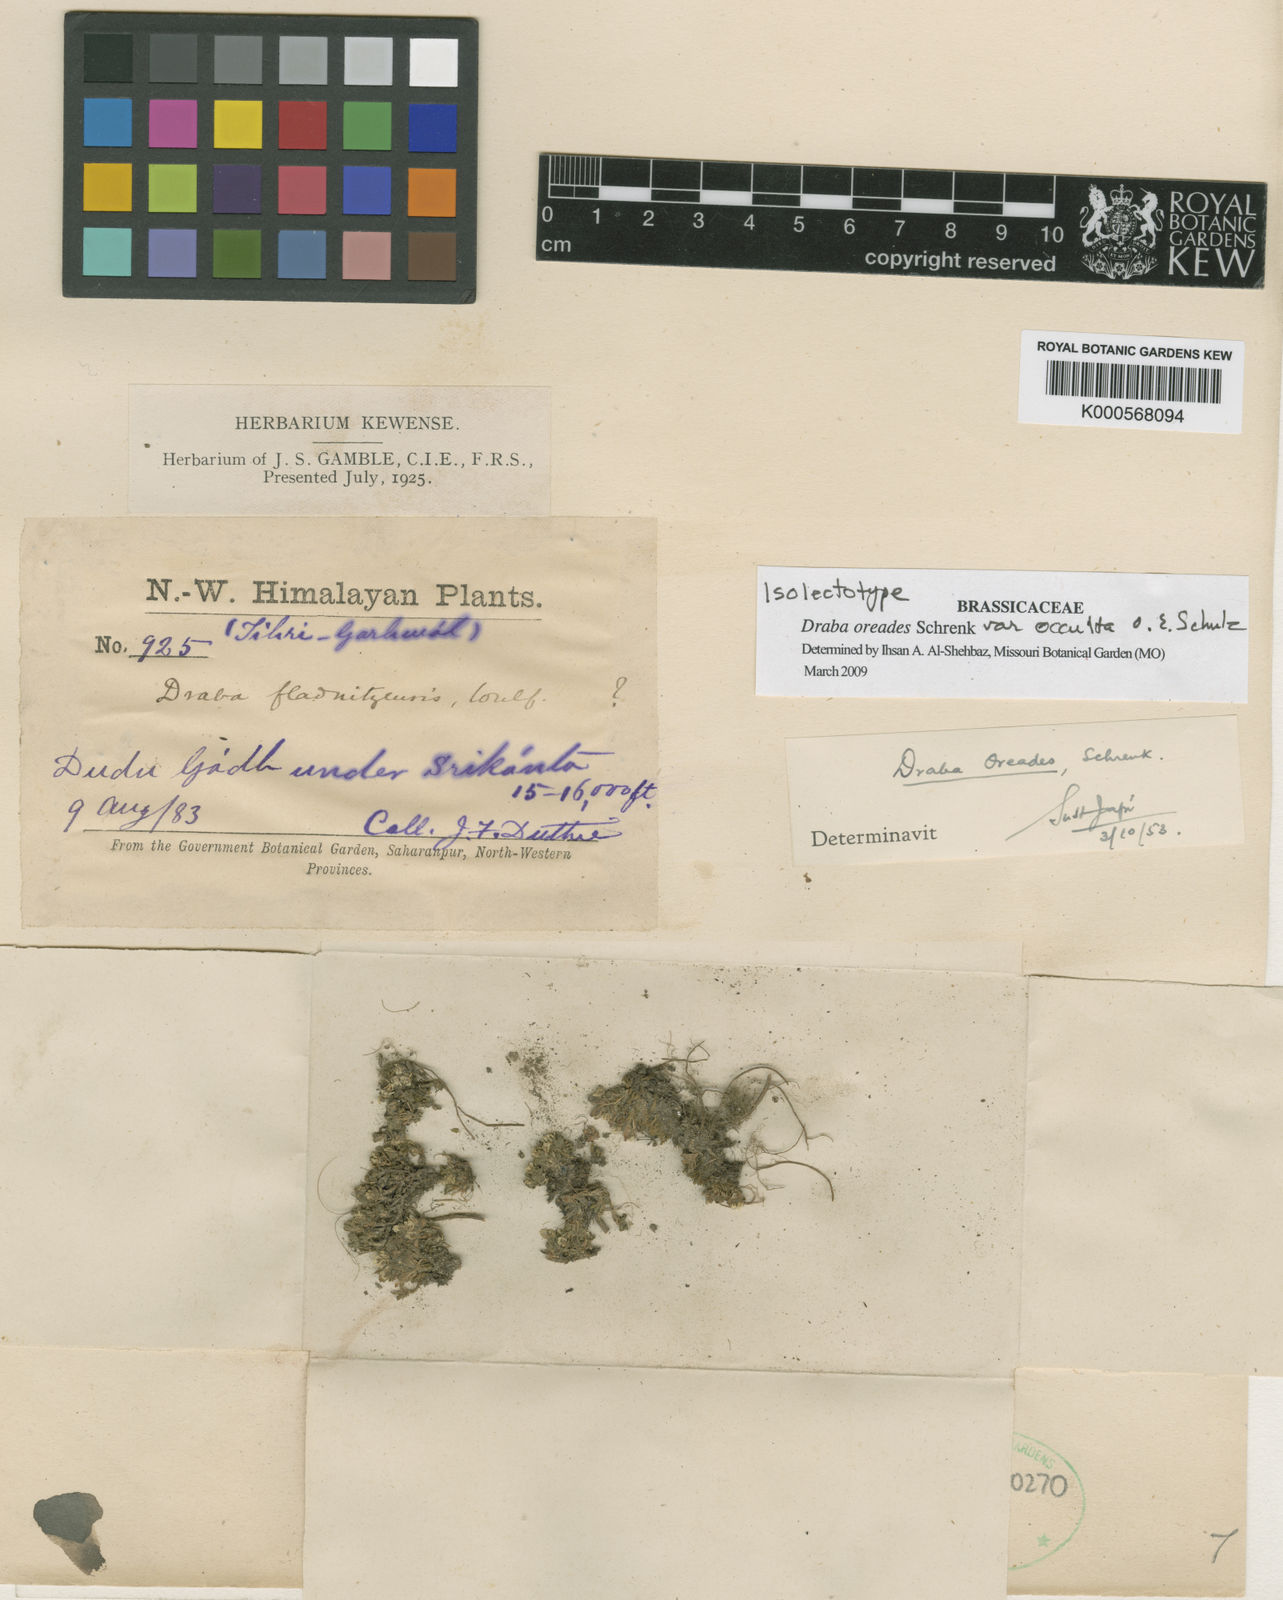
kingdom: Plantae
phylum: Tracheophyta
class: Magnoliopsida
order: Brassicales
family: Brassicaceae
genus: Draba
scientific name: Draba oreades
